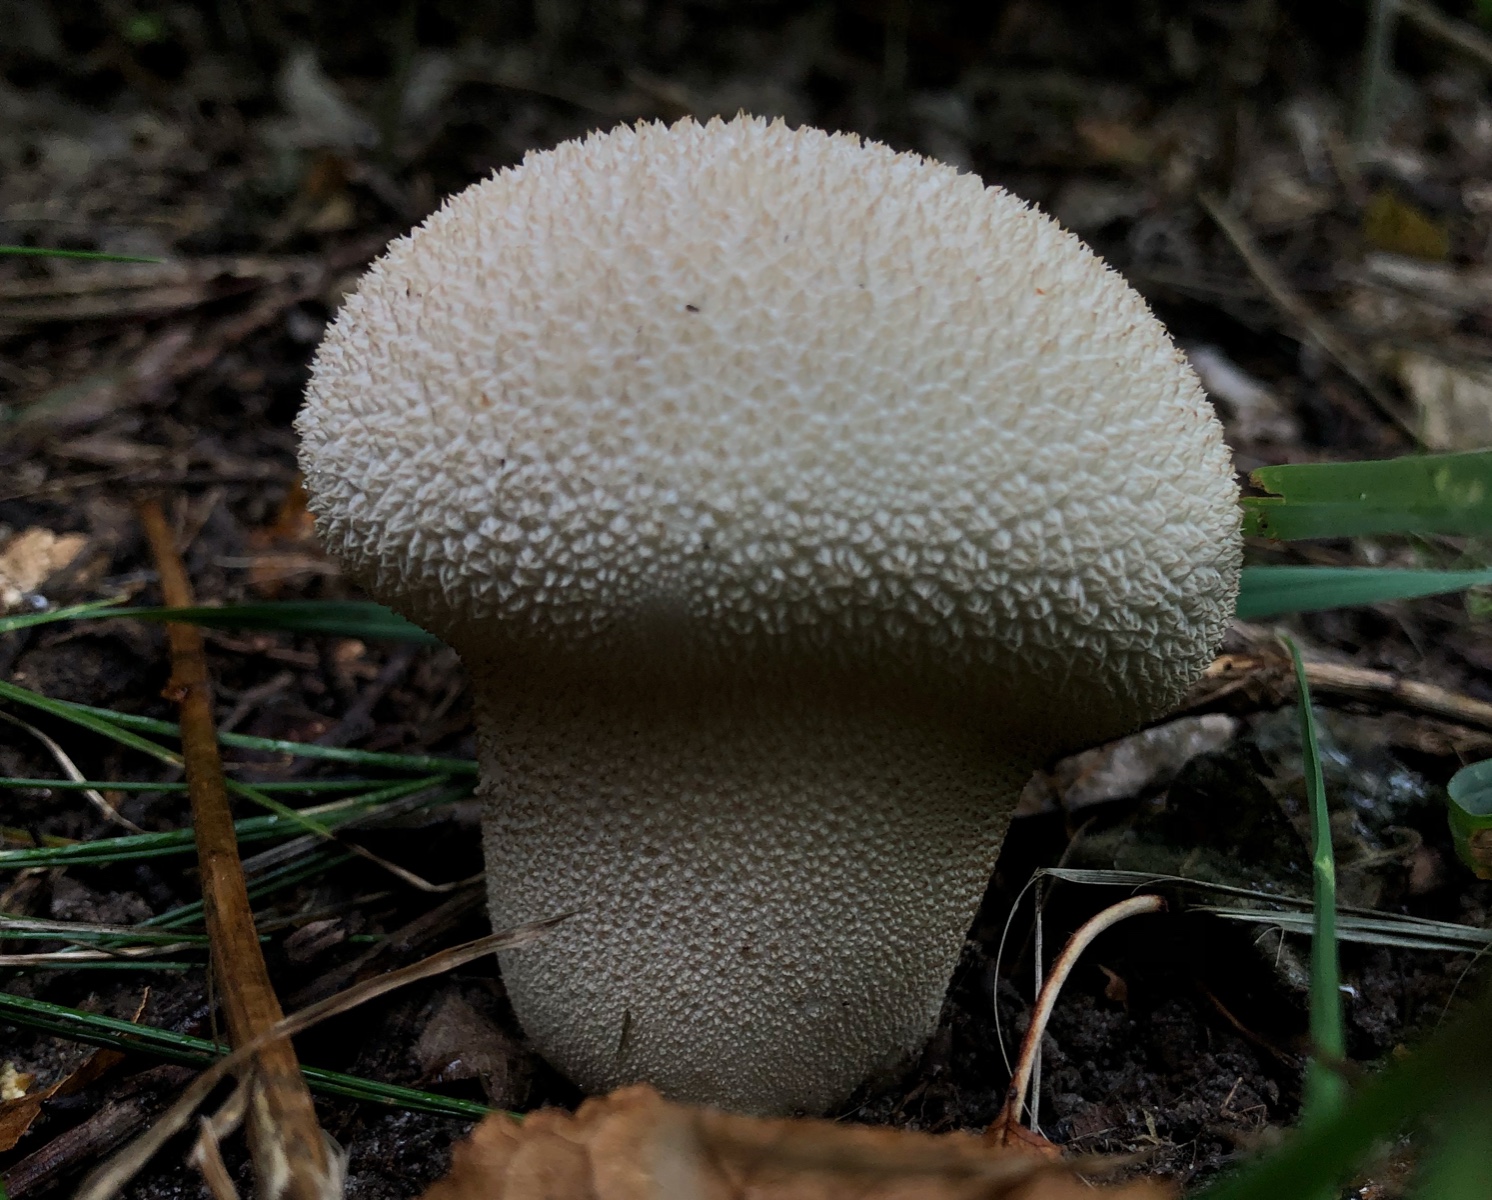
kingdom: Fungi
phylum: Basidiomycota
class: Agaricomycetes
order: Agaricales
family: Lycoperdaceae
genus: Lycoperdon
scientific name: Lycoperdon excipuliforme
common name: højstokket støvbold
